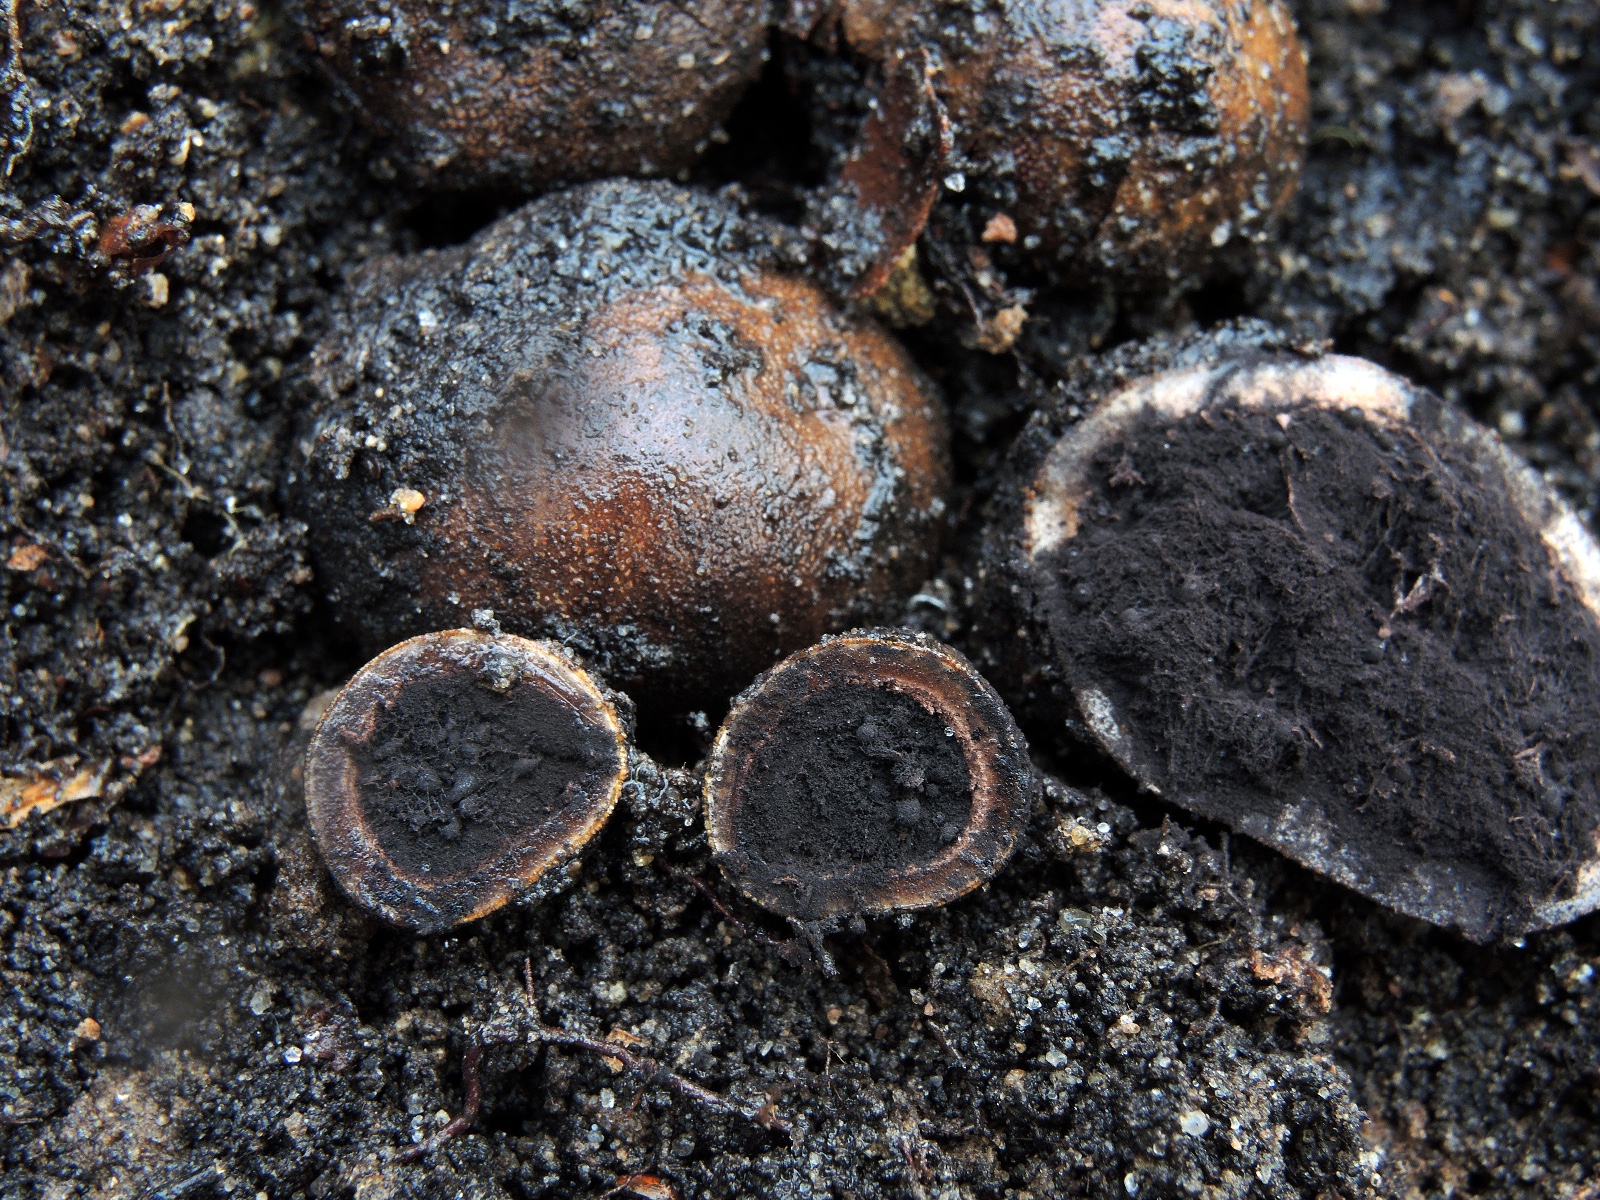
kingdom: Fungi
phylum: Ascomycota
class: Eurotiomycetes
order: Eurotiales
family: Elaphomycetaceae
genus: Elaphomyces
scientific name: Elaphomyces asperulus
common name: vinrød hjortetrøffel
